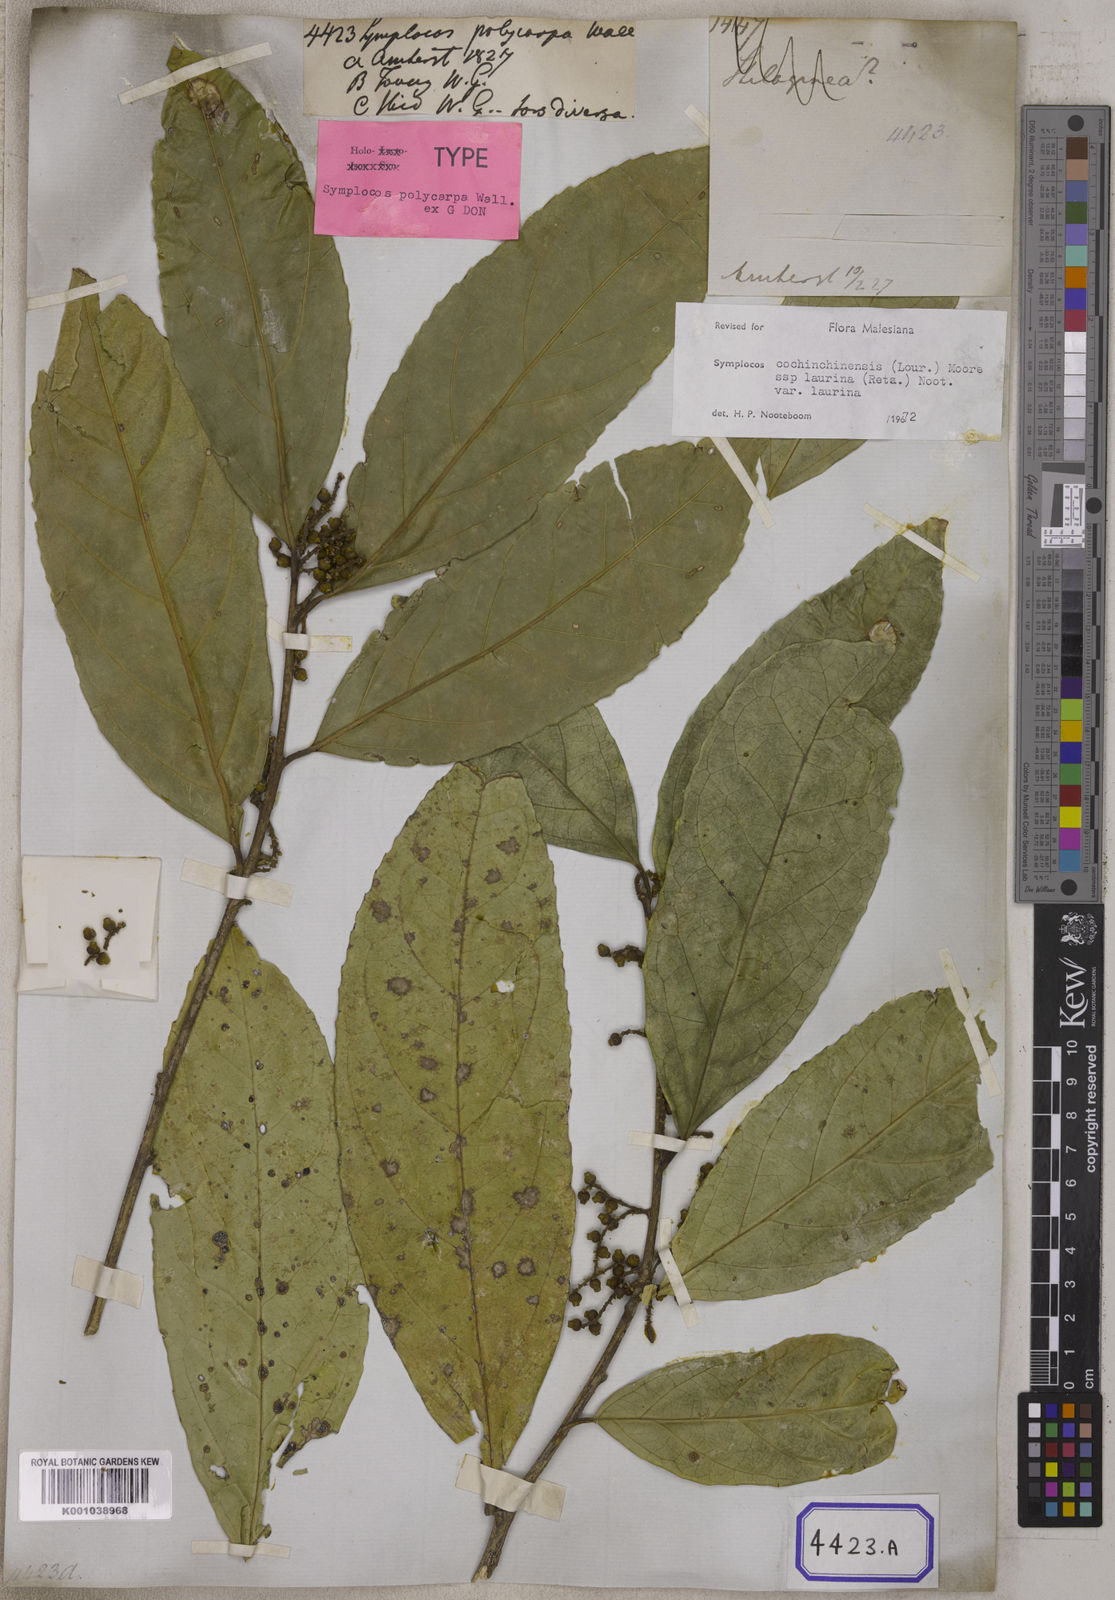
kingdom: Plantae
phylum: Tracheophyta
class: Magnoliopsida
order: Ericales
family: Symplocaceae
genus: Symplocos
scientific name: Symplocos
